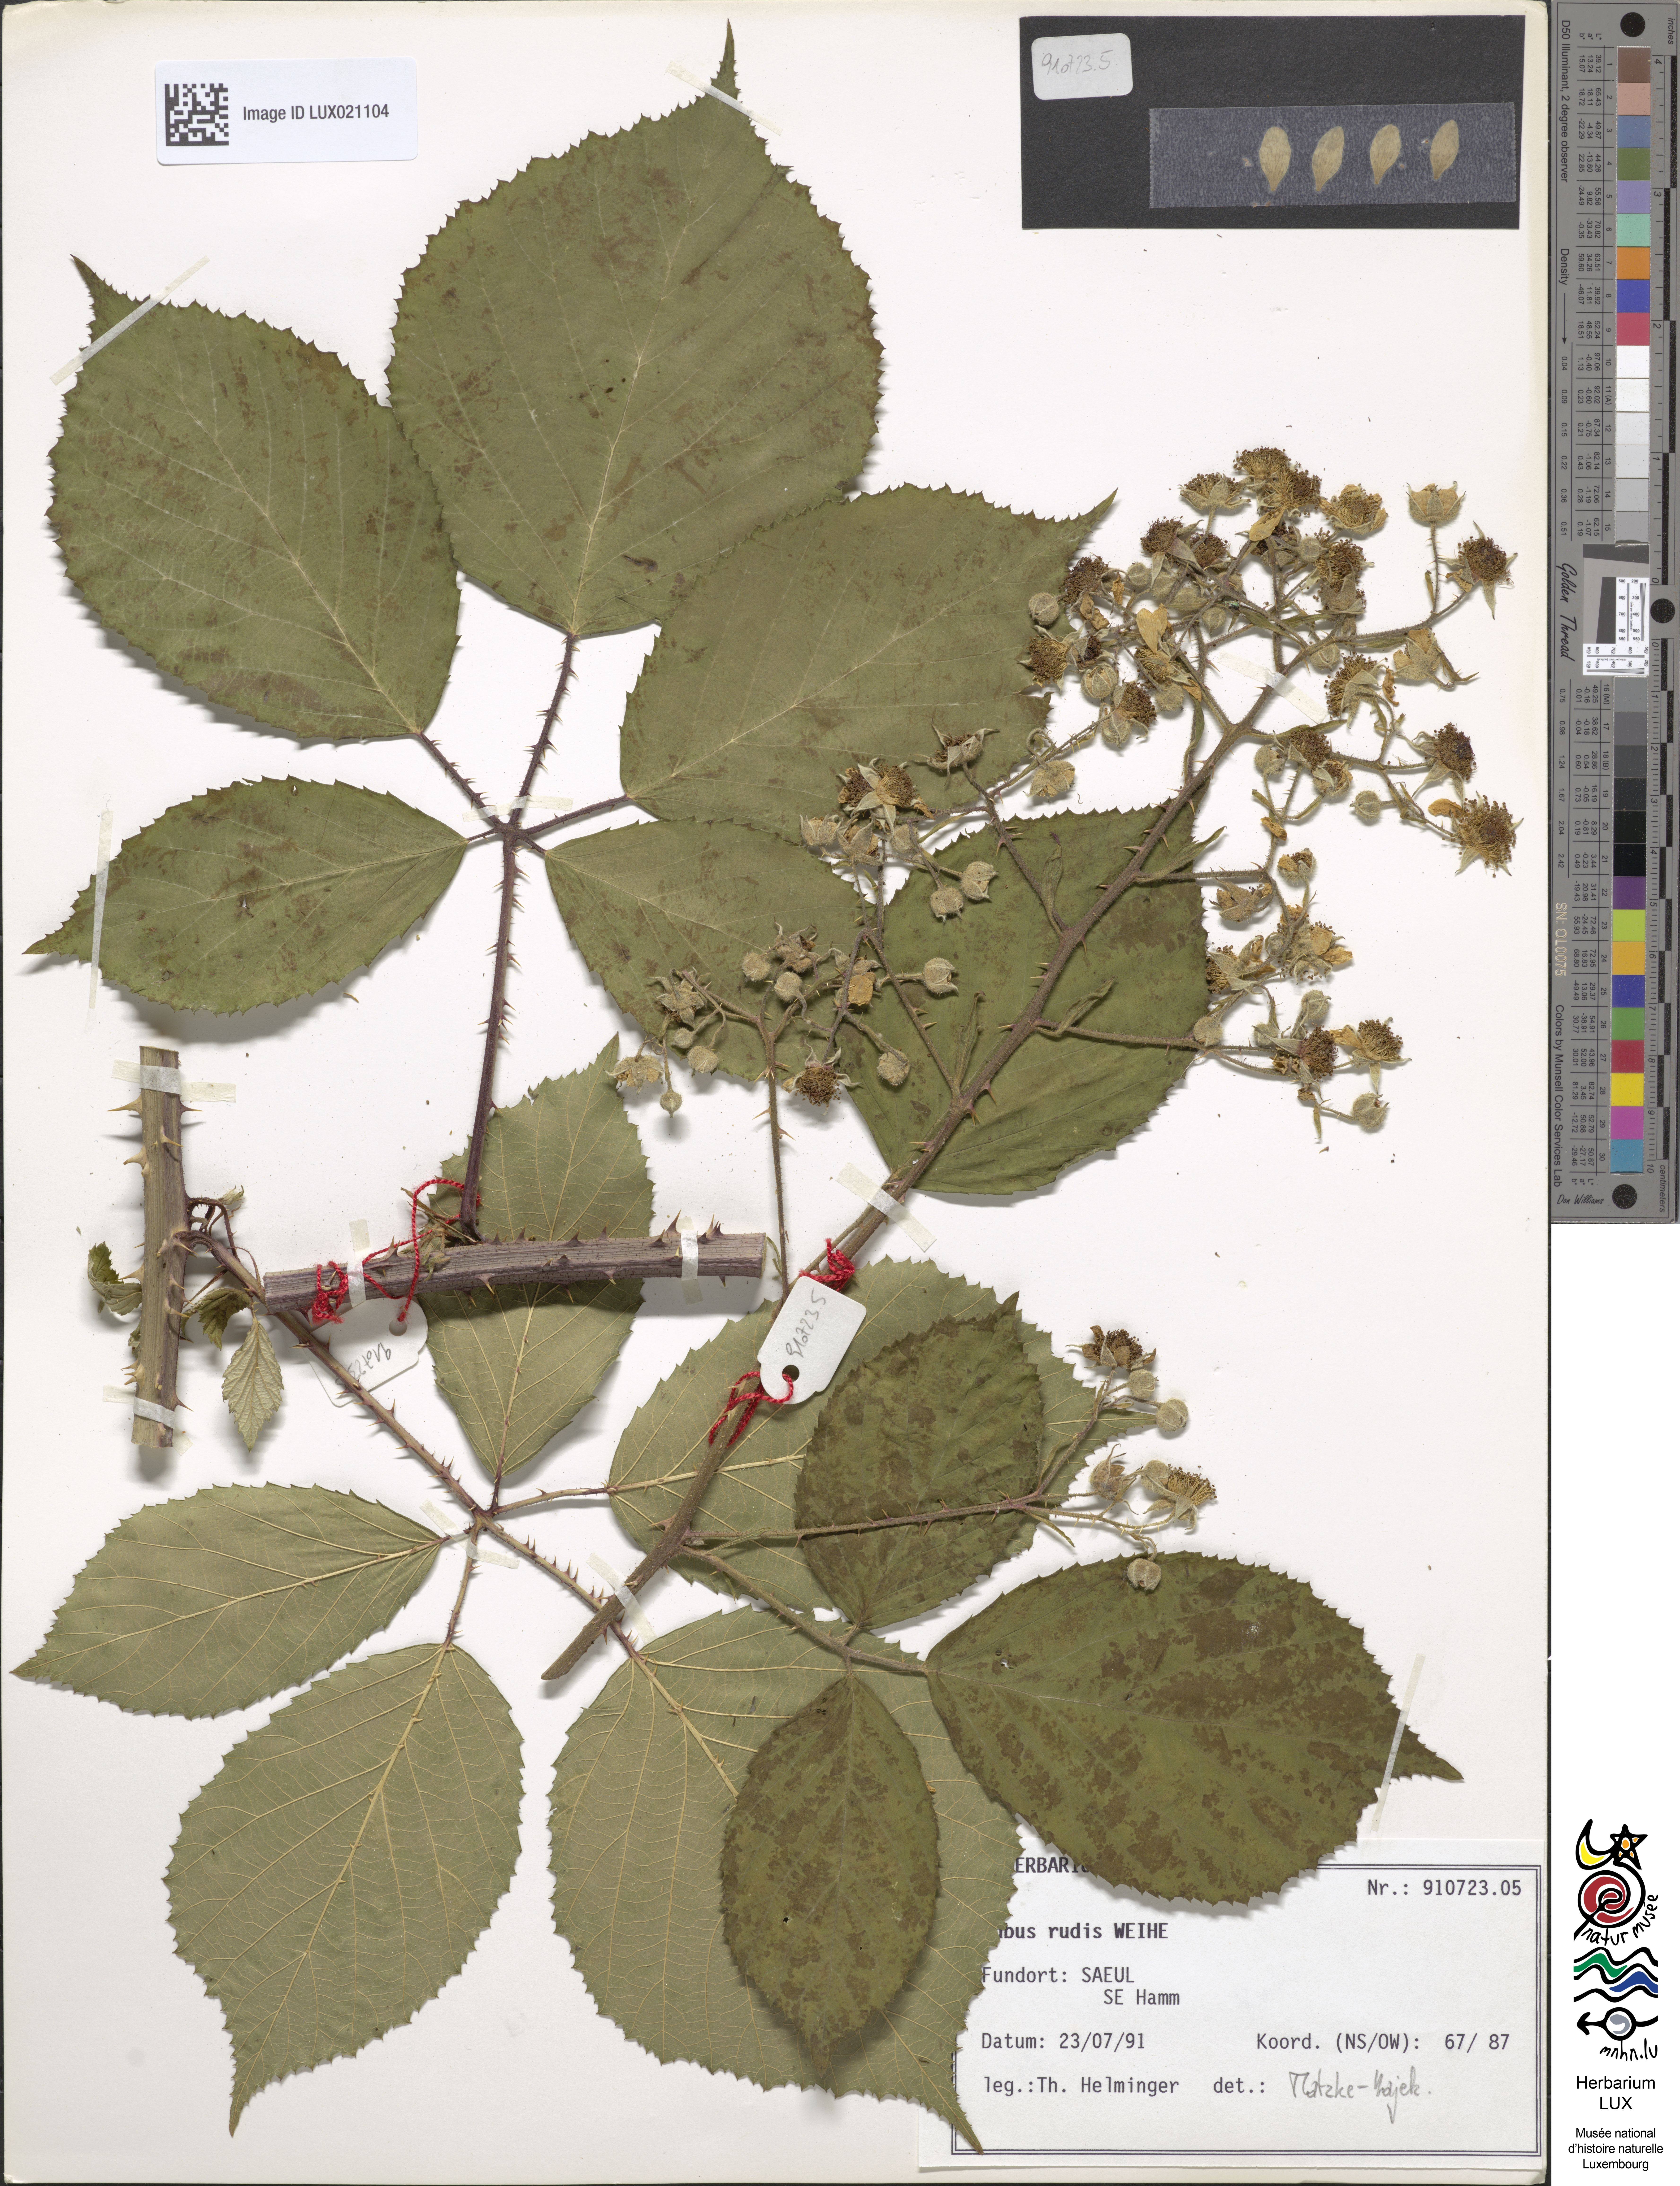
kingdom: Plantae
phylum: Tracheophyta
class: Magnoliopsida
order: Rosales
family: Rosaceae
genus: Rubus
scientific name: Rubus rudis
